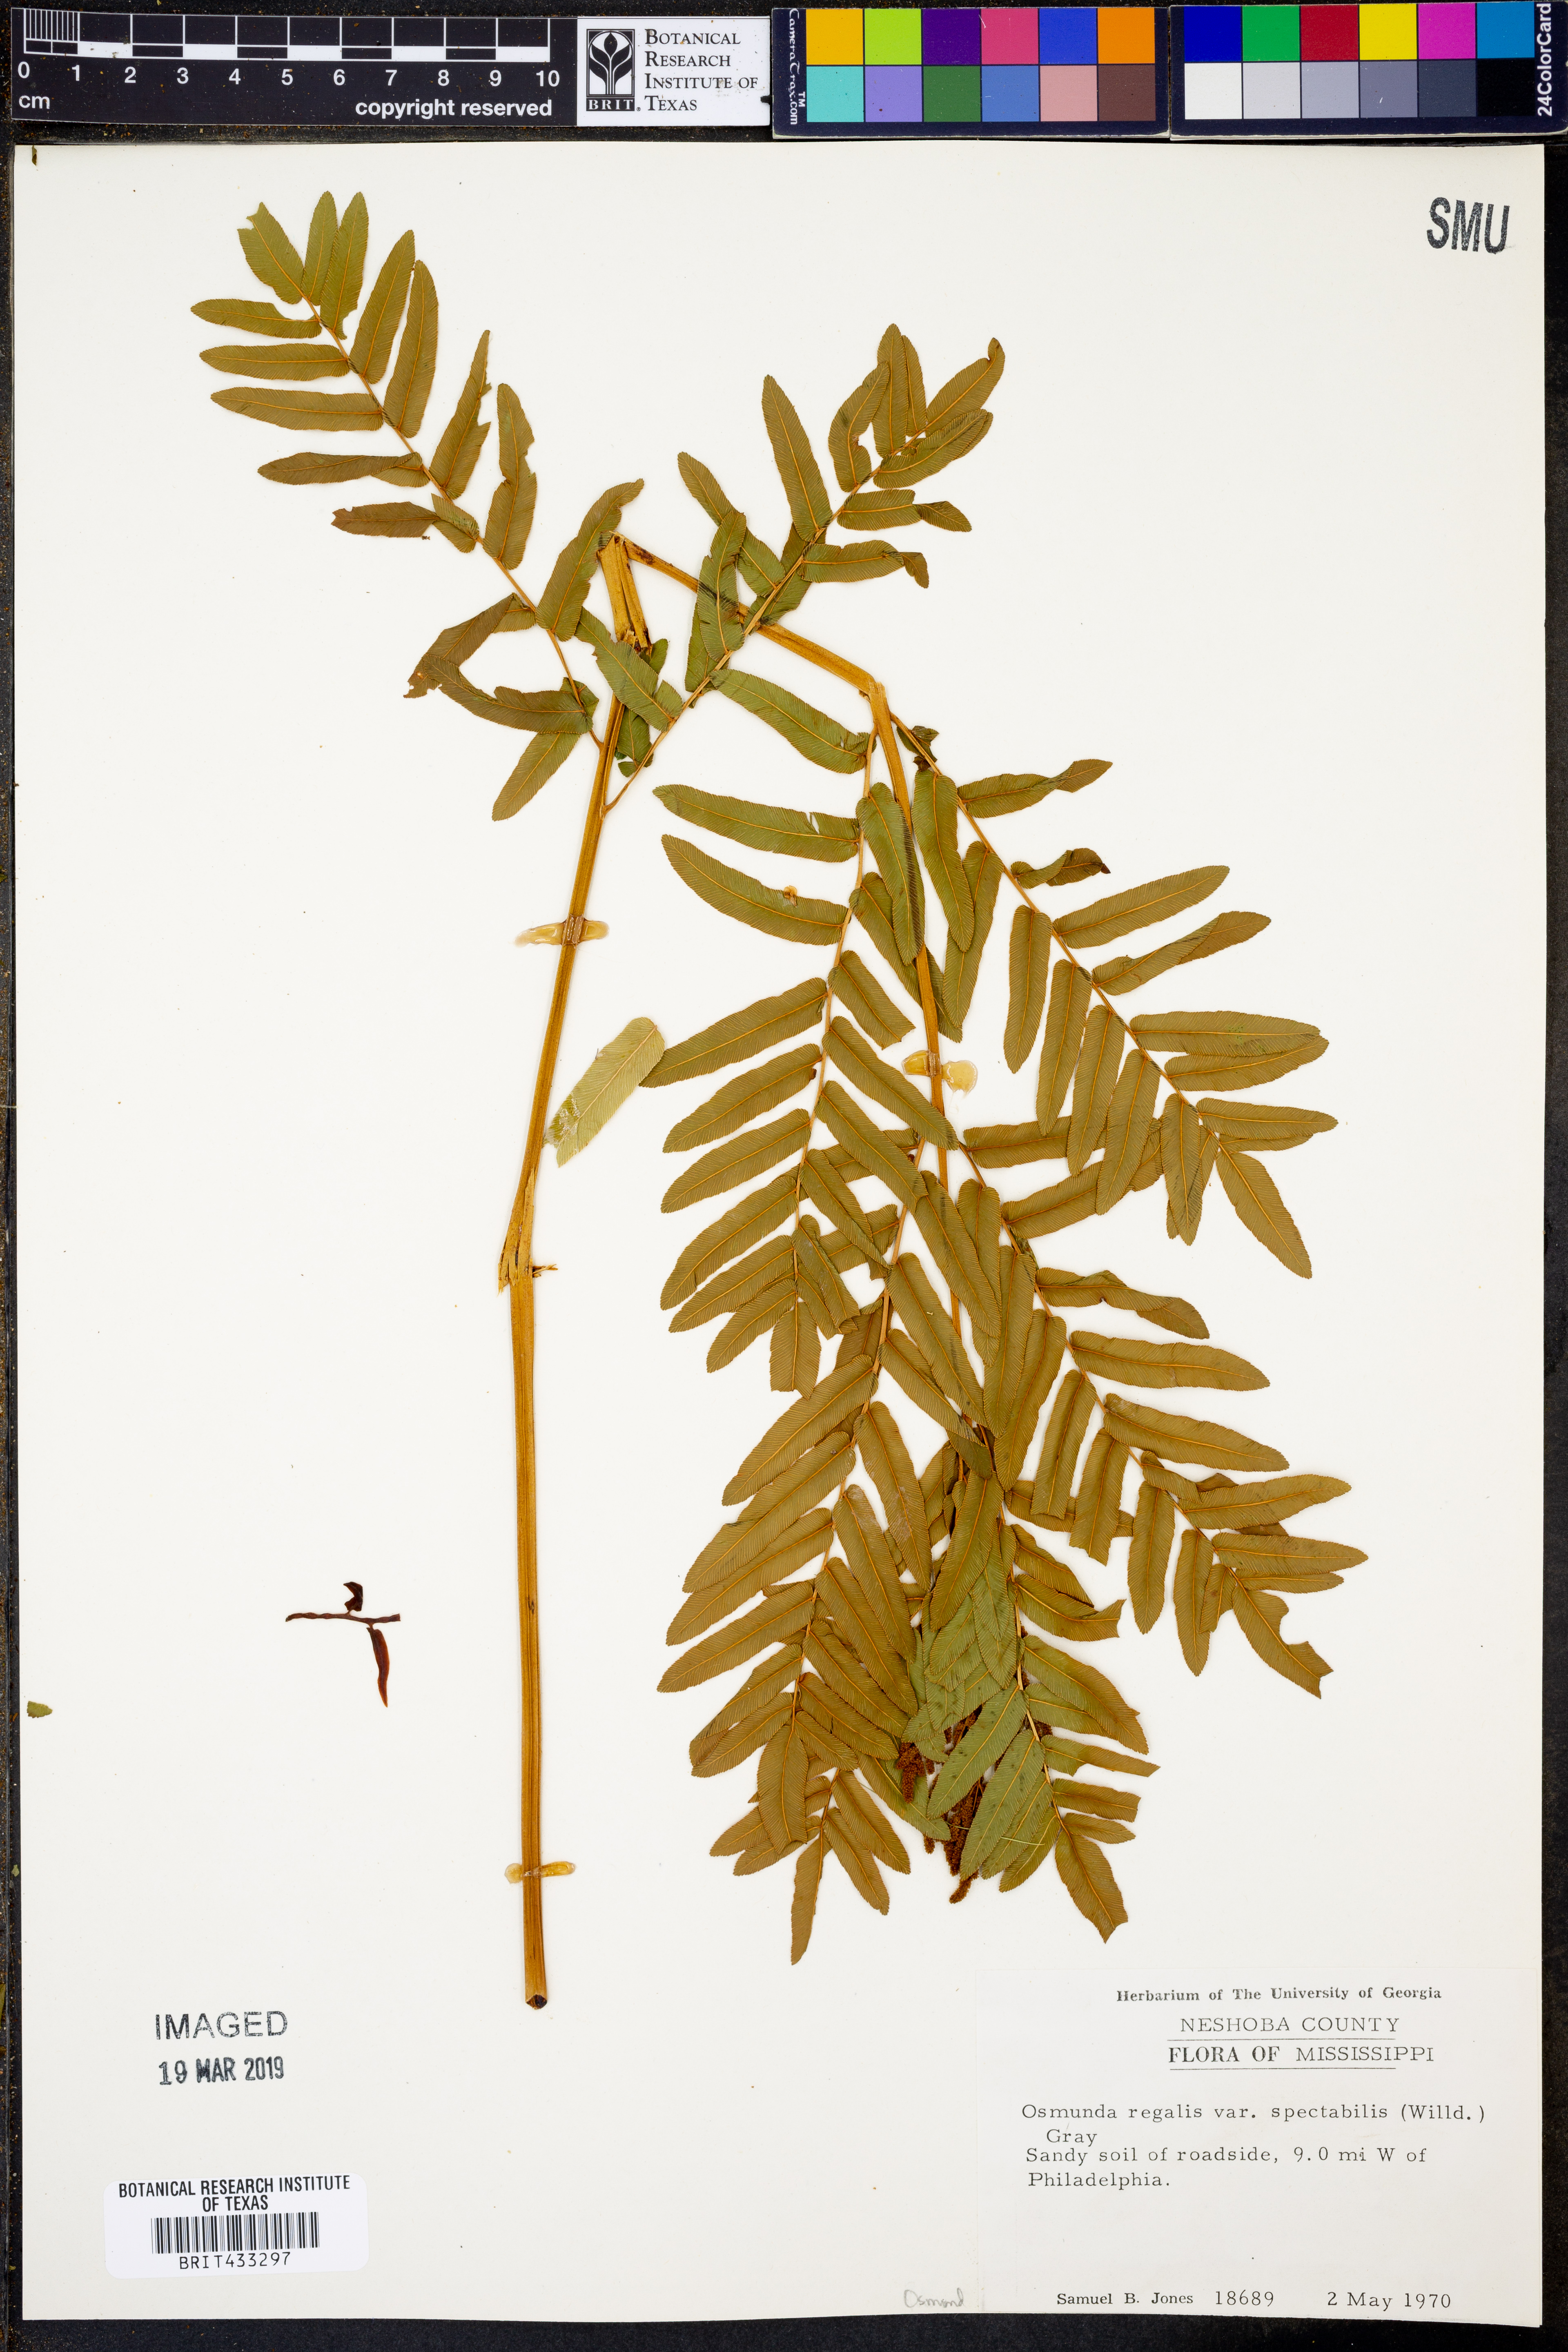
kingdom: Plantae
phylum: Tracheophyta
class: Polypodiopsida
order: Osmundales
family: Osmundaceae
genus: Osmunda
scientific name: Osmunda spectabilis
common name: American royal fern
